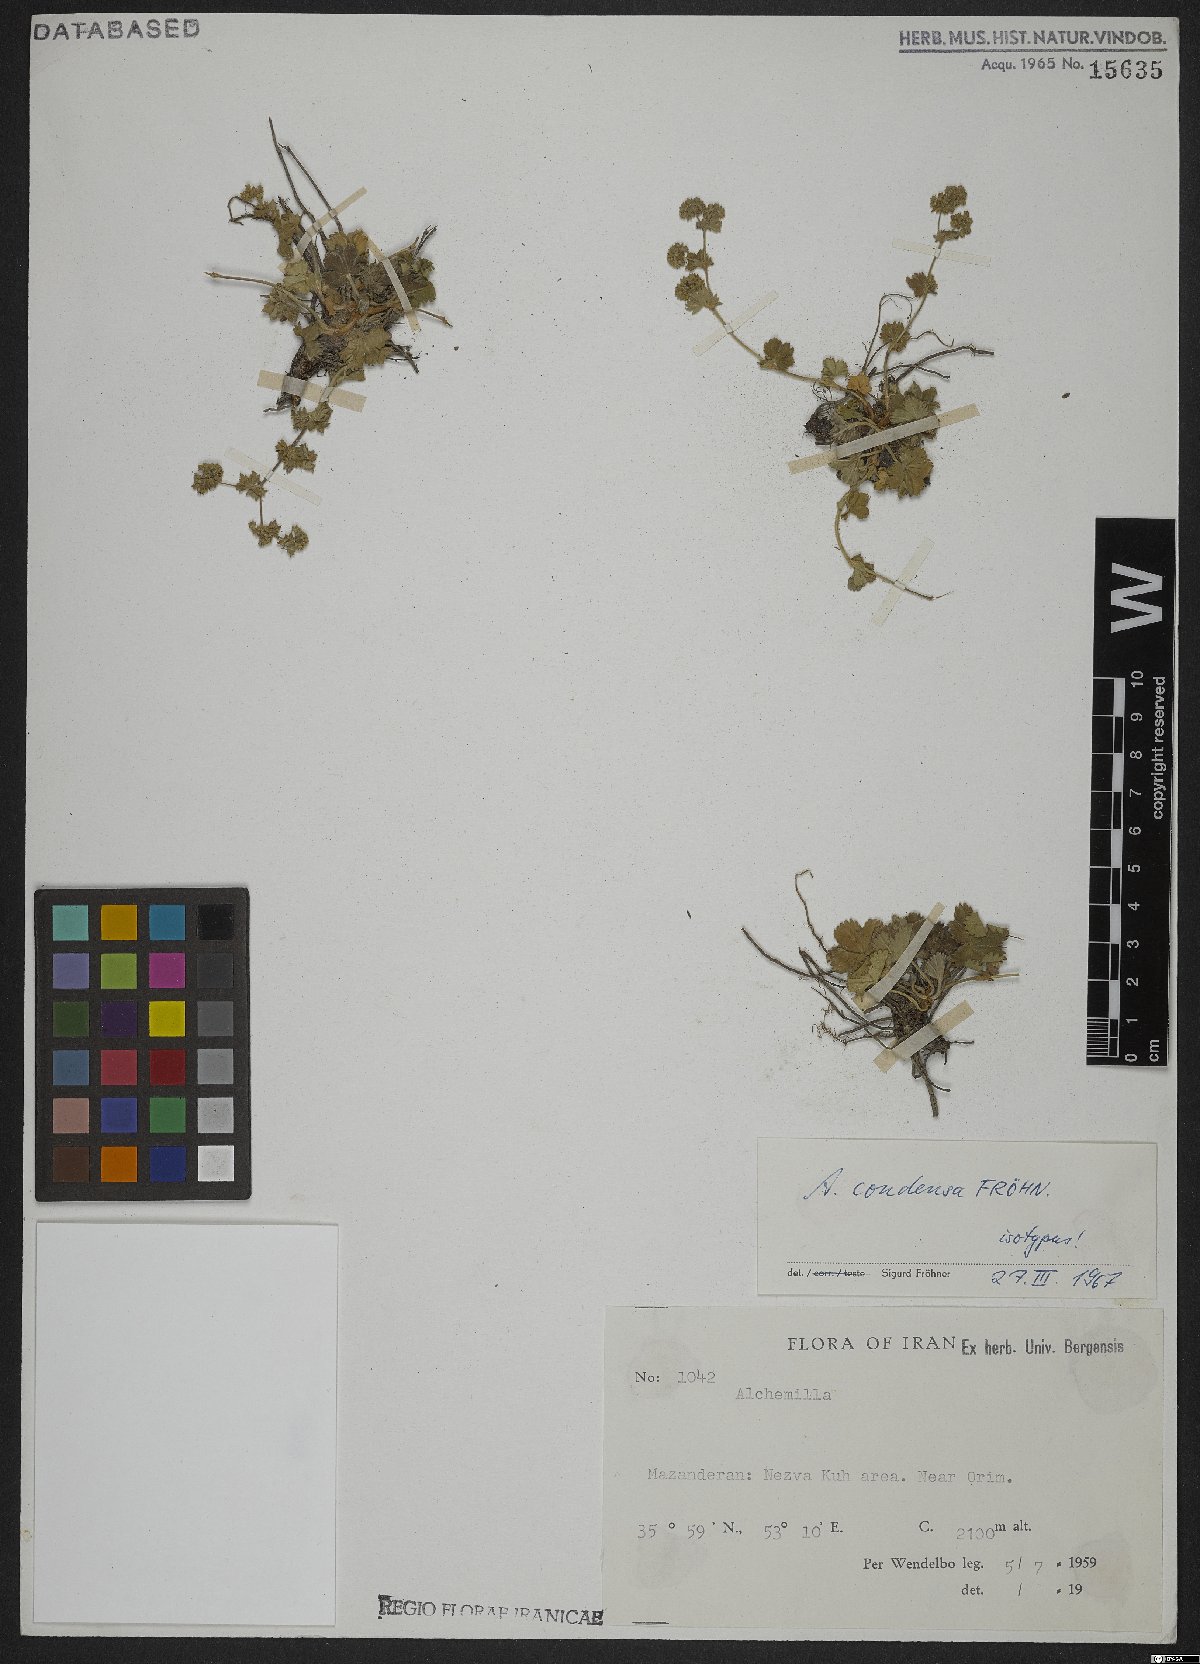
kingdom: Plantae
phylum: Tracheophyta
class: Magnoliopsida
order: Rosales
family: Rosaceae
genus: Alchemilla
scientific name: Alchemilla condensa
